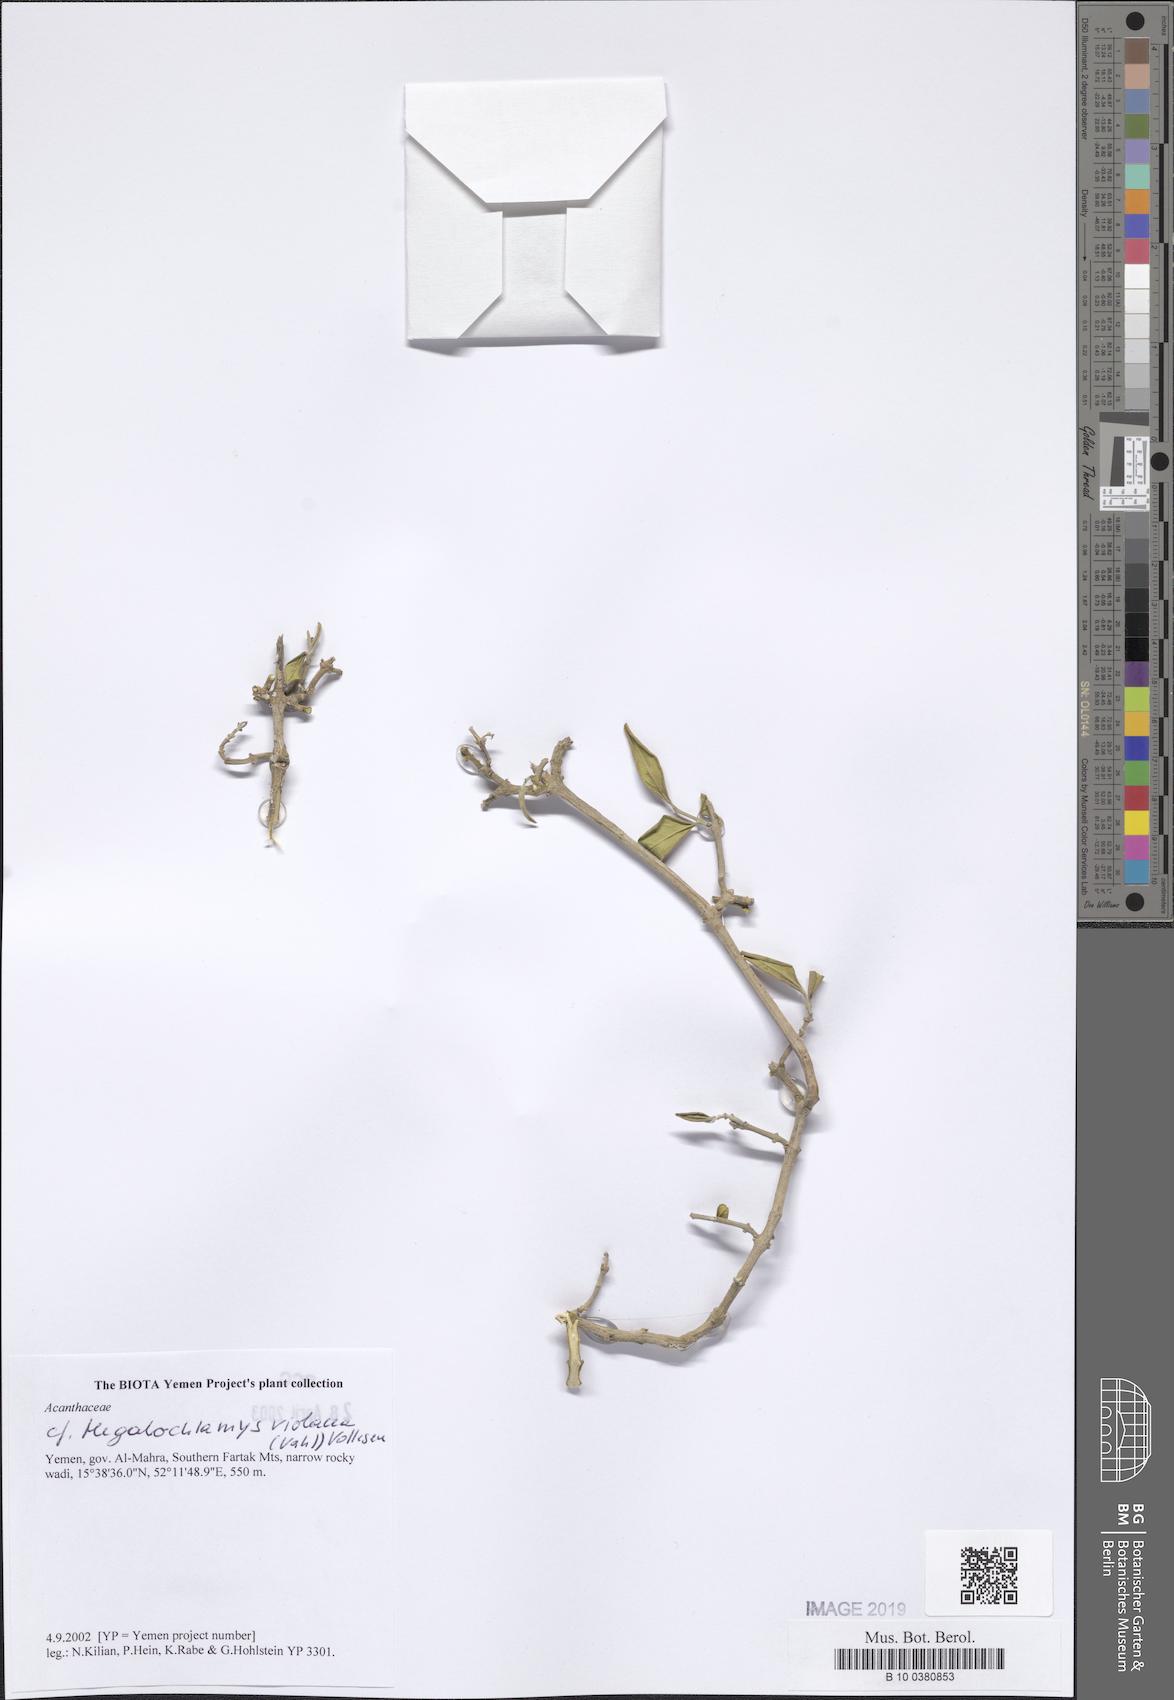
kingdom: Plantae
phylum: Tracheophyta
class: Magnoliopsida
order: Lamiales
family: Acanthaceae
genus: Megalochlamys
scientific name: Megalochlamys violacea
